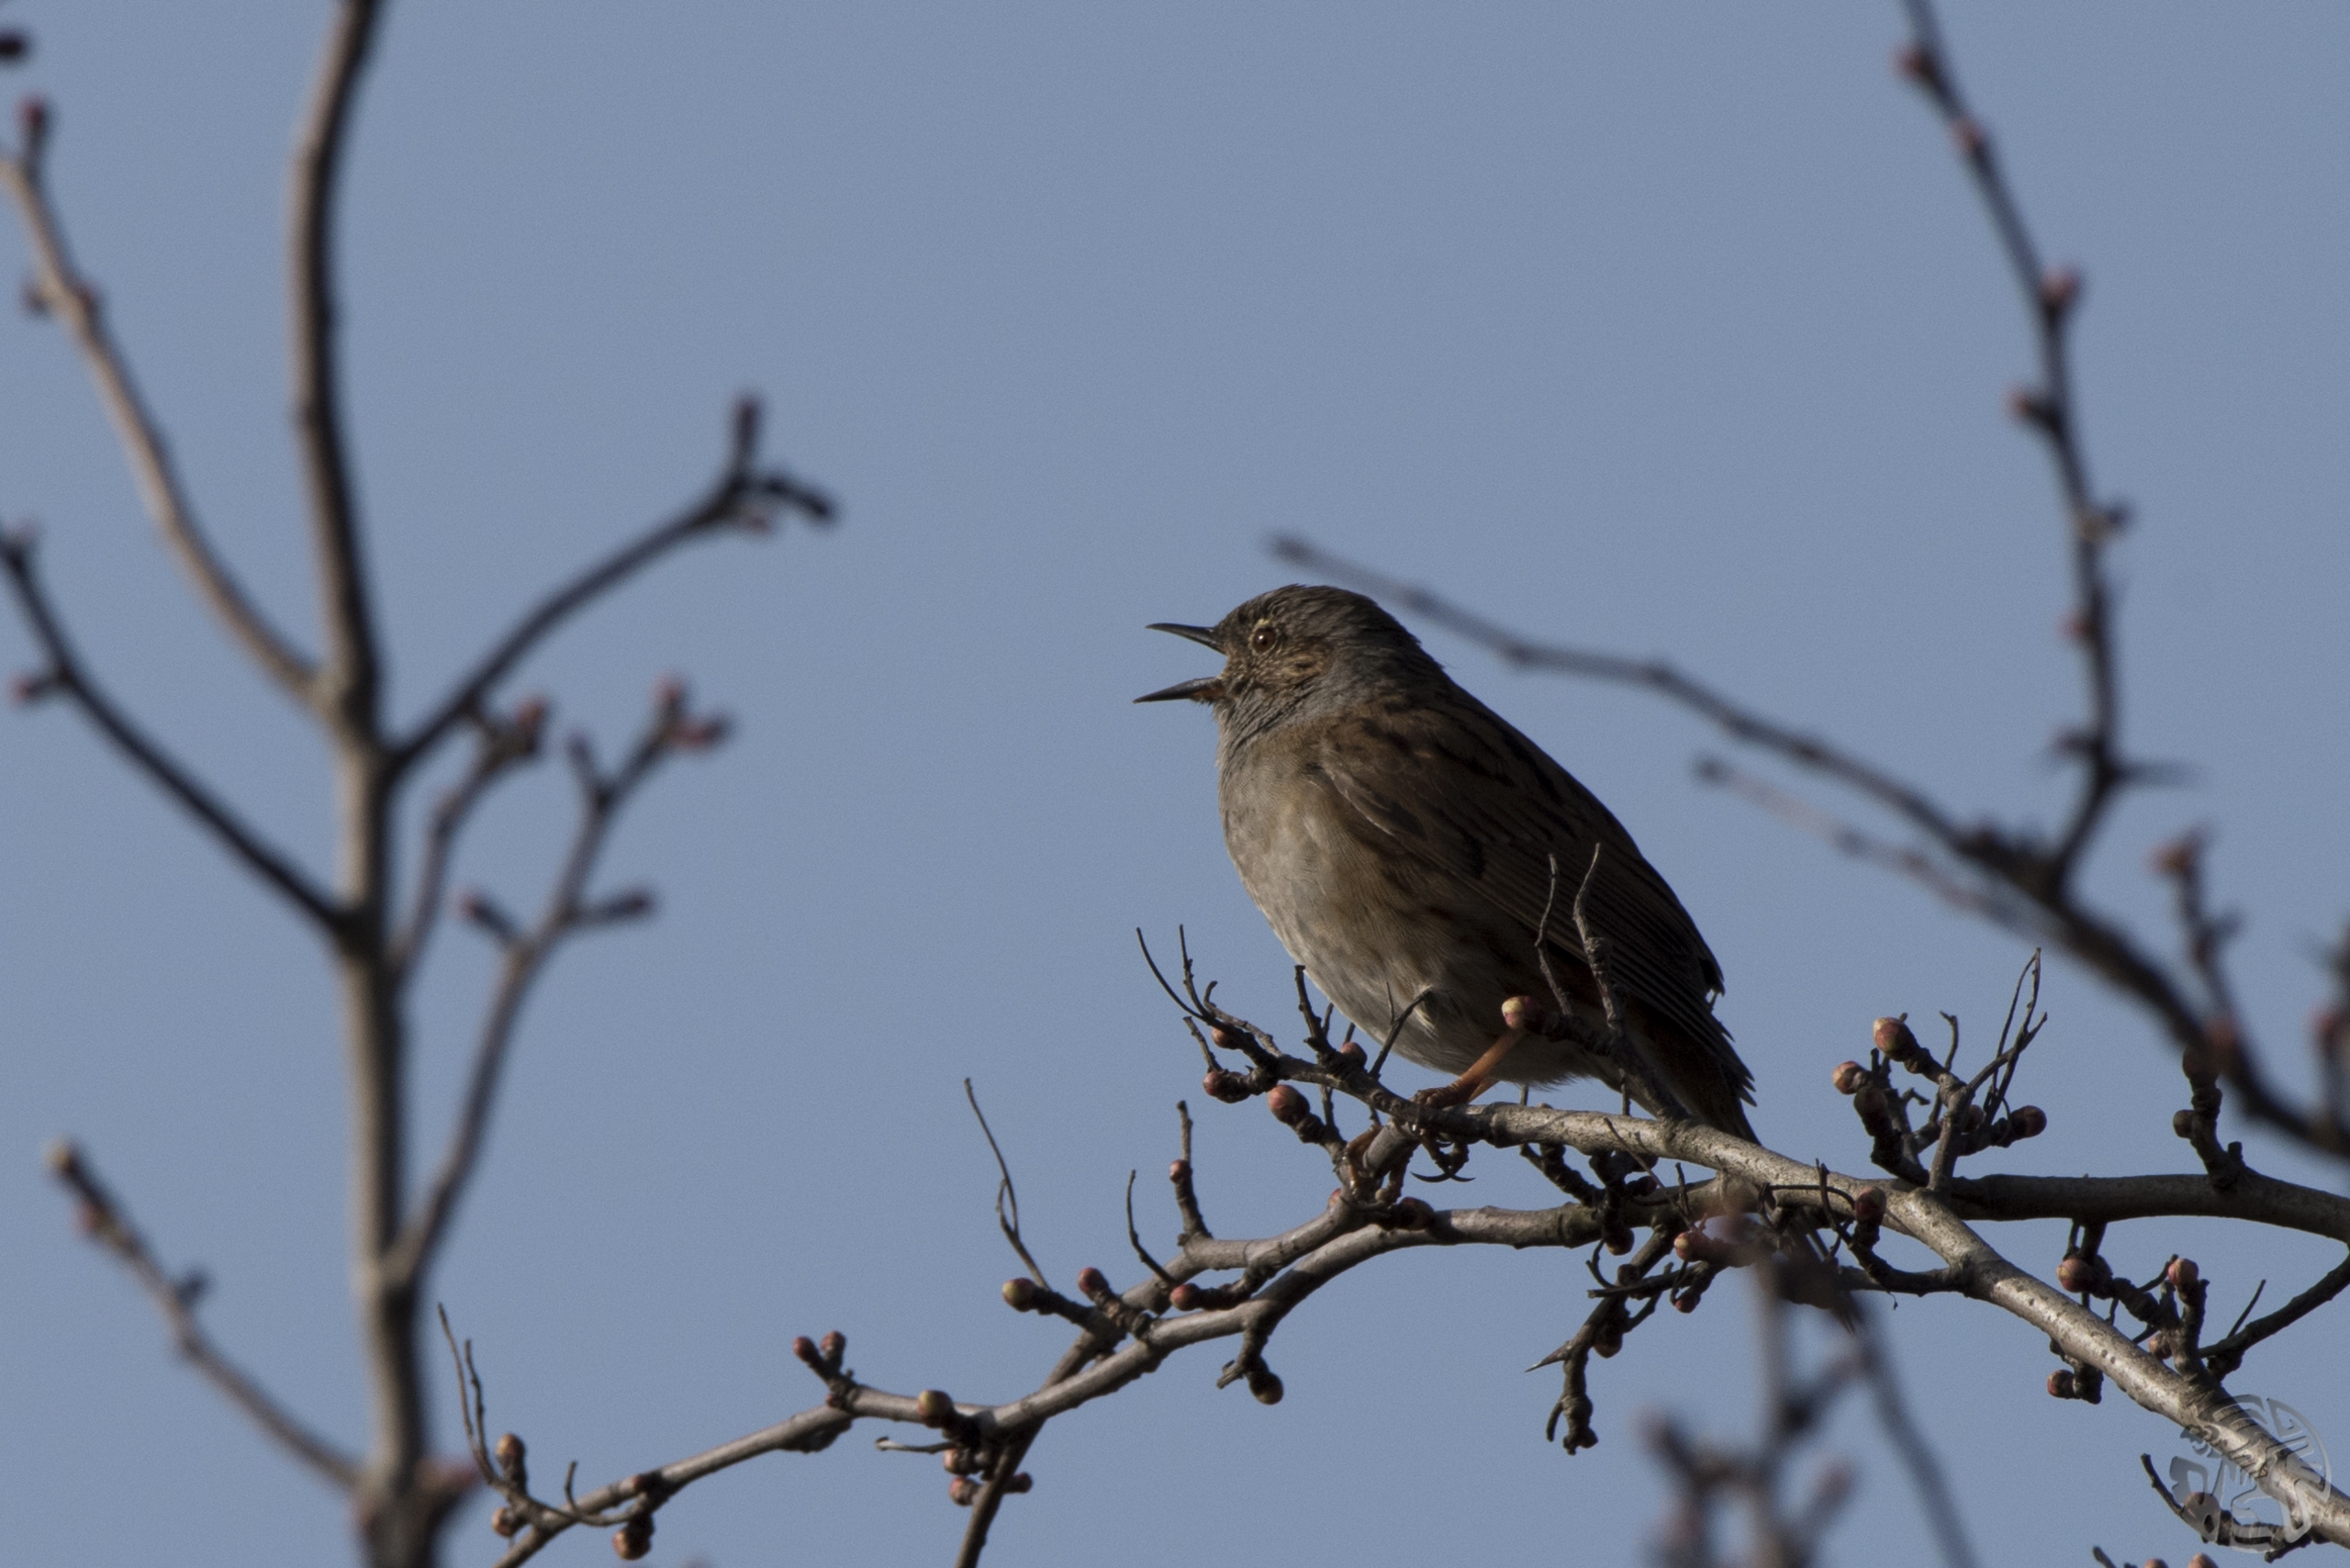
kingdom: Animalia
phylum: Chordata
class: Aves
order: Passeriformes
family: Prunellidae
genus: Prunella
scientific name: Prunella modularis
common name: Jernspurv
